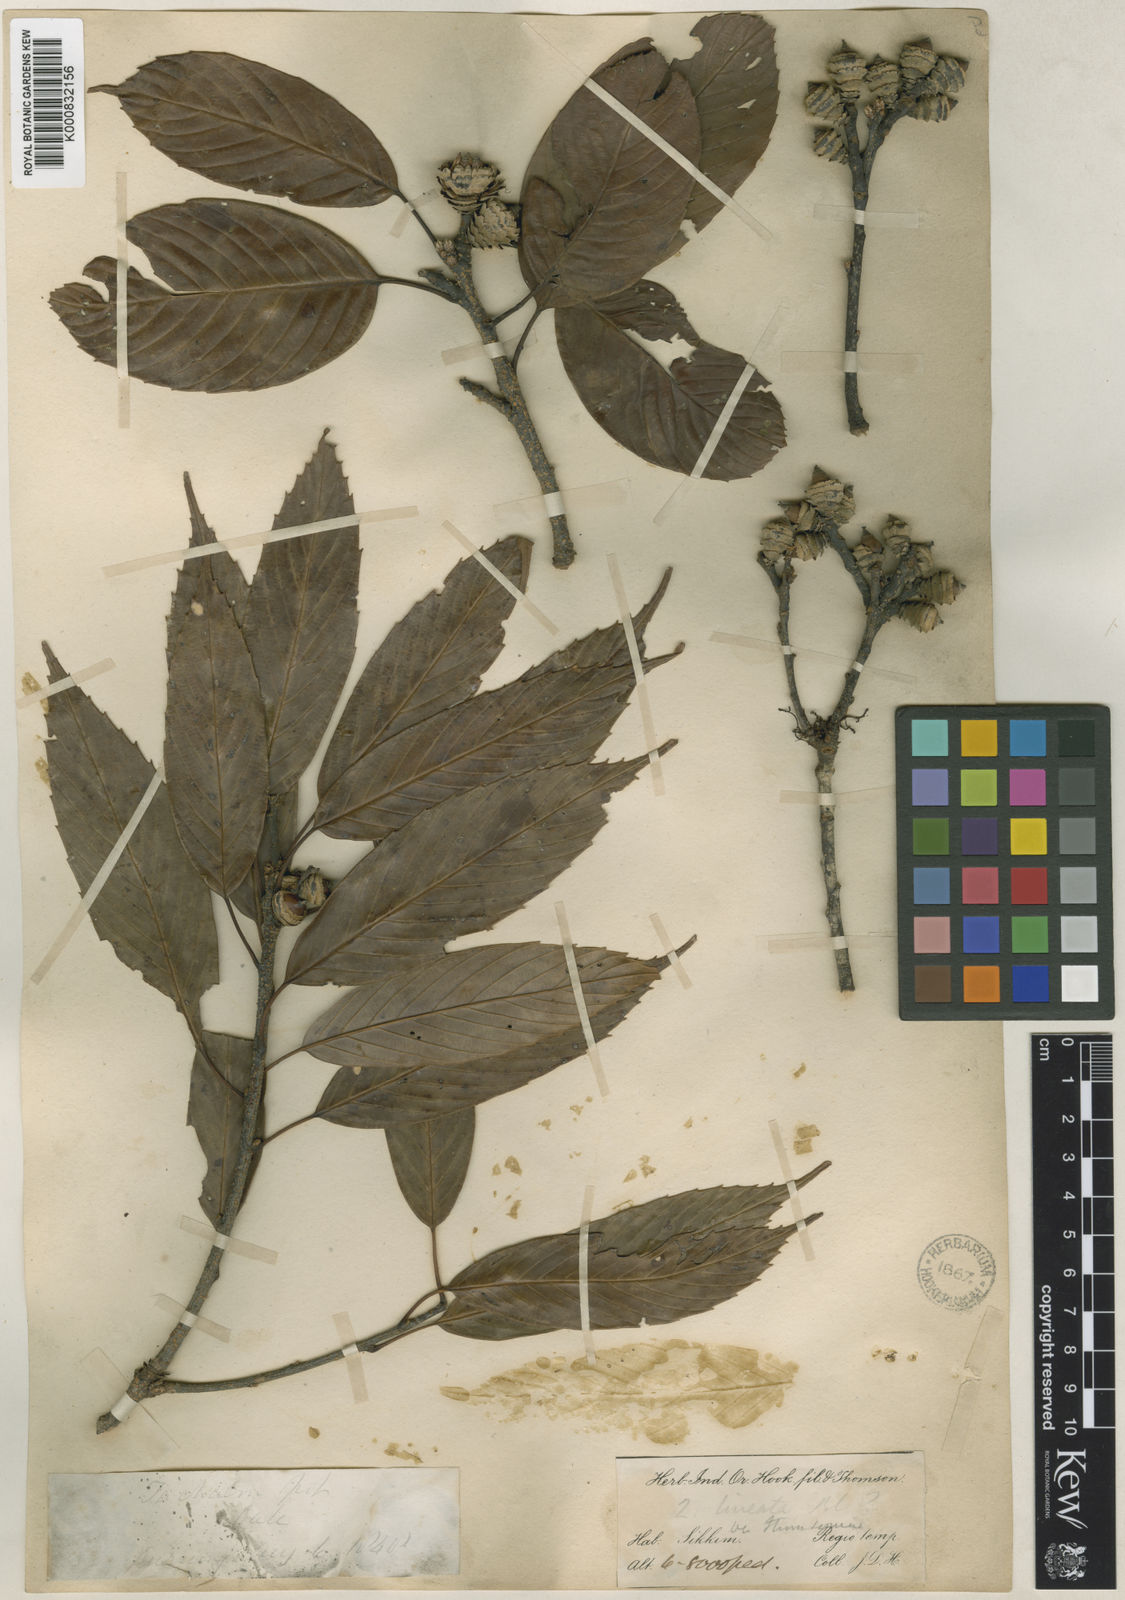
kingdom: Plantae
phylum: Tracheophyta
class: Magnoliopsida
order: Fagales
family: Fagaceae
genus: Quercus
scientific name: Quercus thomsoniana
